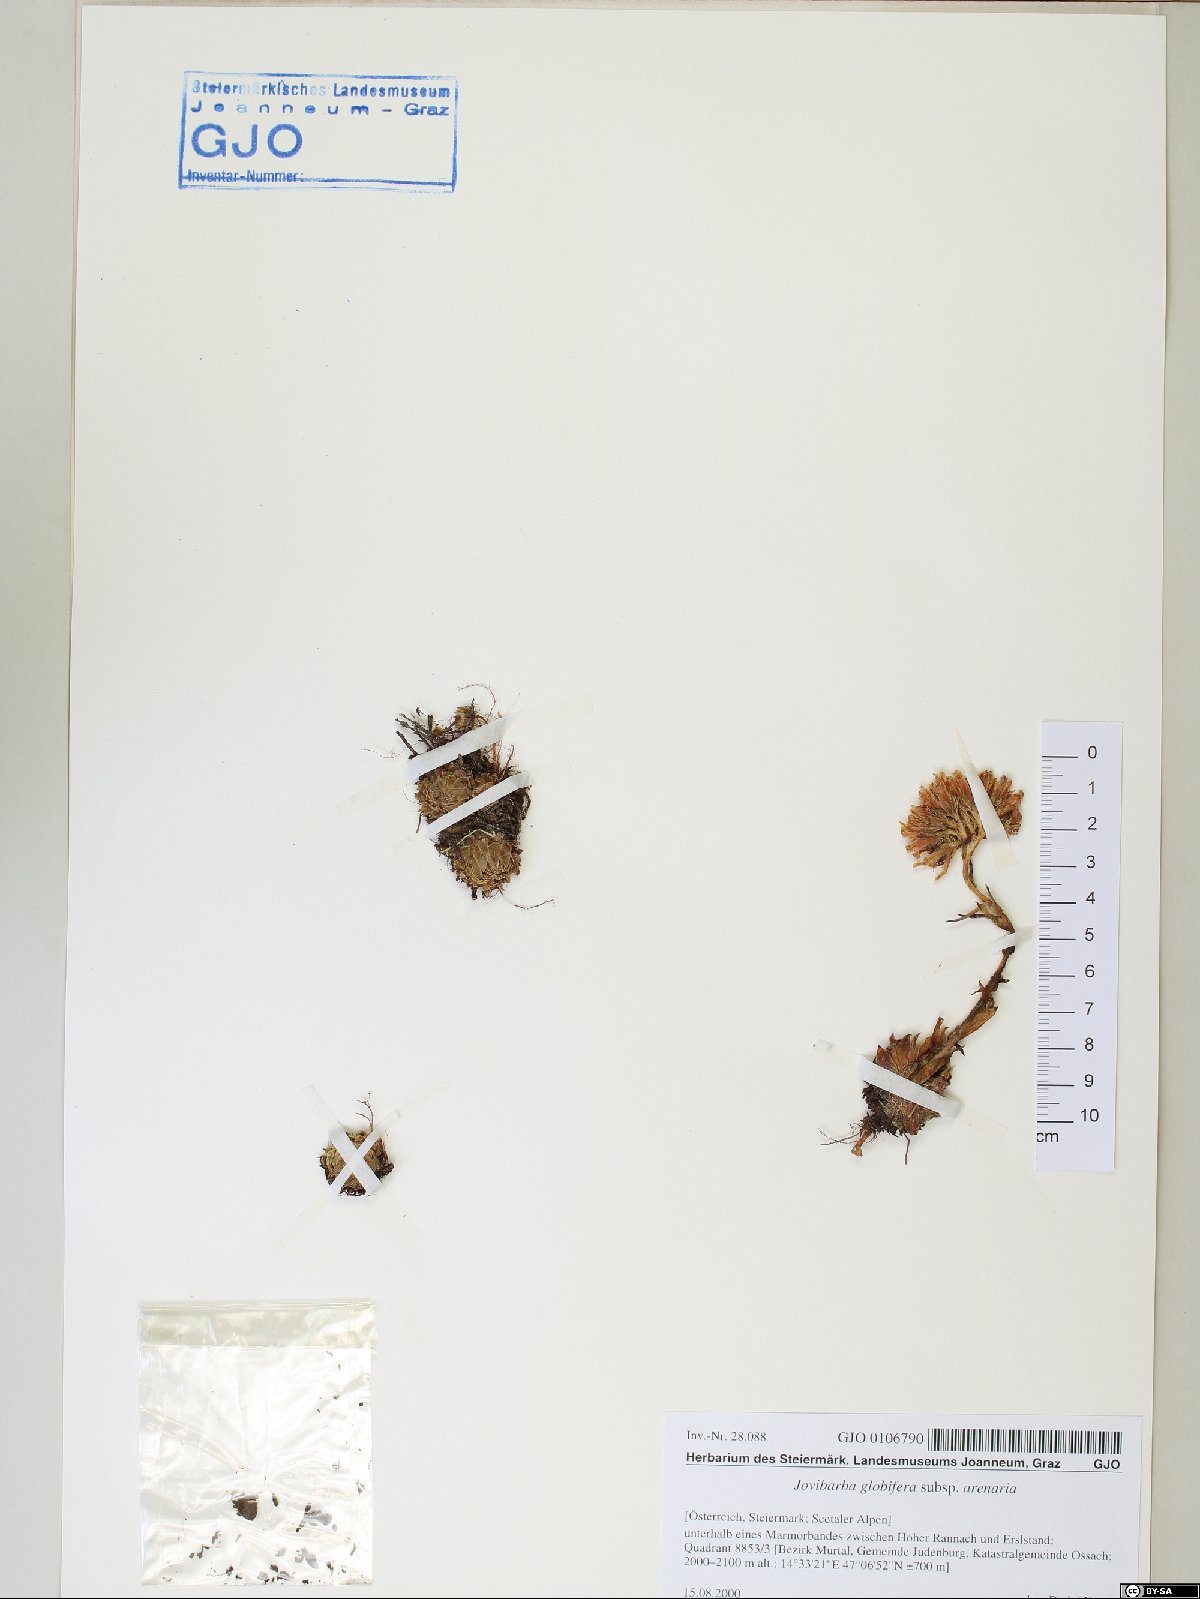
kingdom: Plantae
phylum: Tracheophyta
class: Magnoliopsida
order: Saxifragales
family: Crassulaceae
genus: Sempervivum
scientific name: Sempervivum globiferum
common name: Rolling hen-and-chicks
